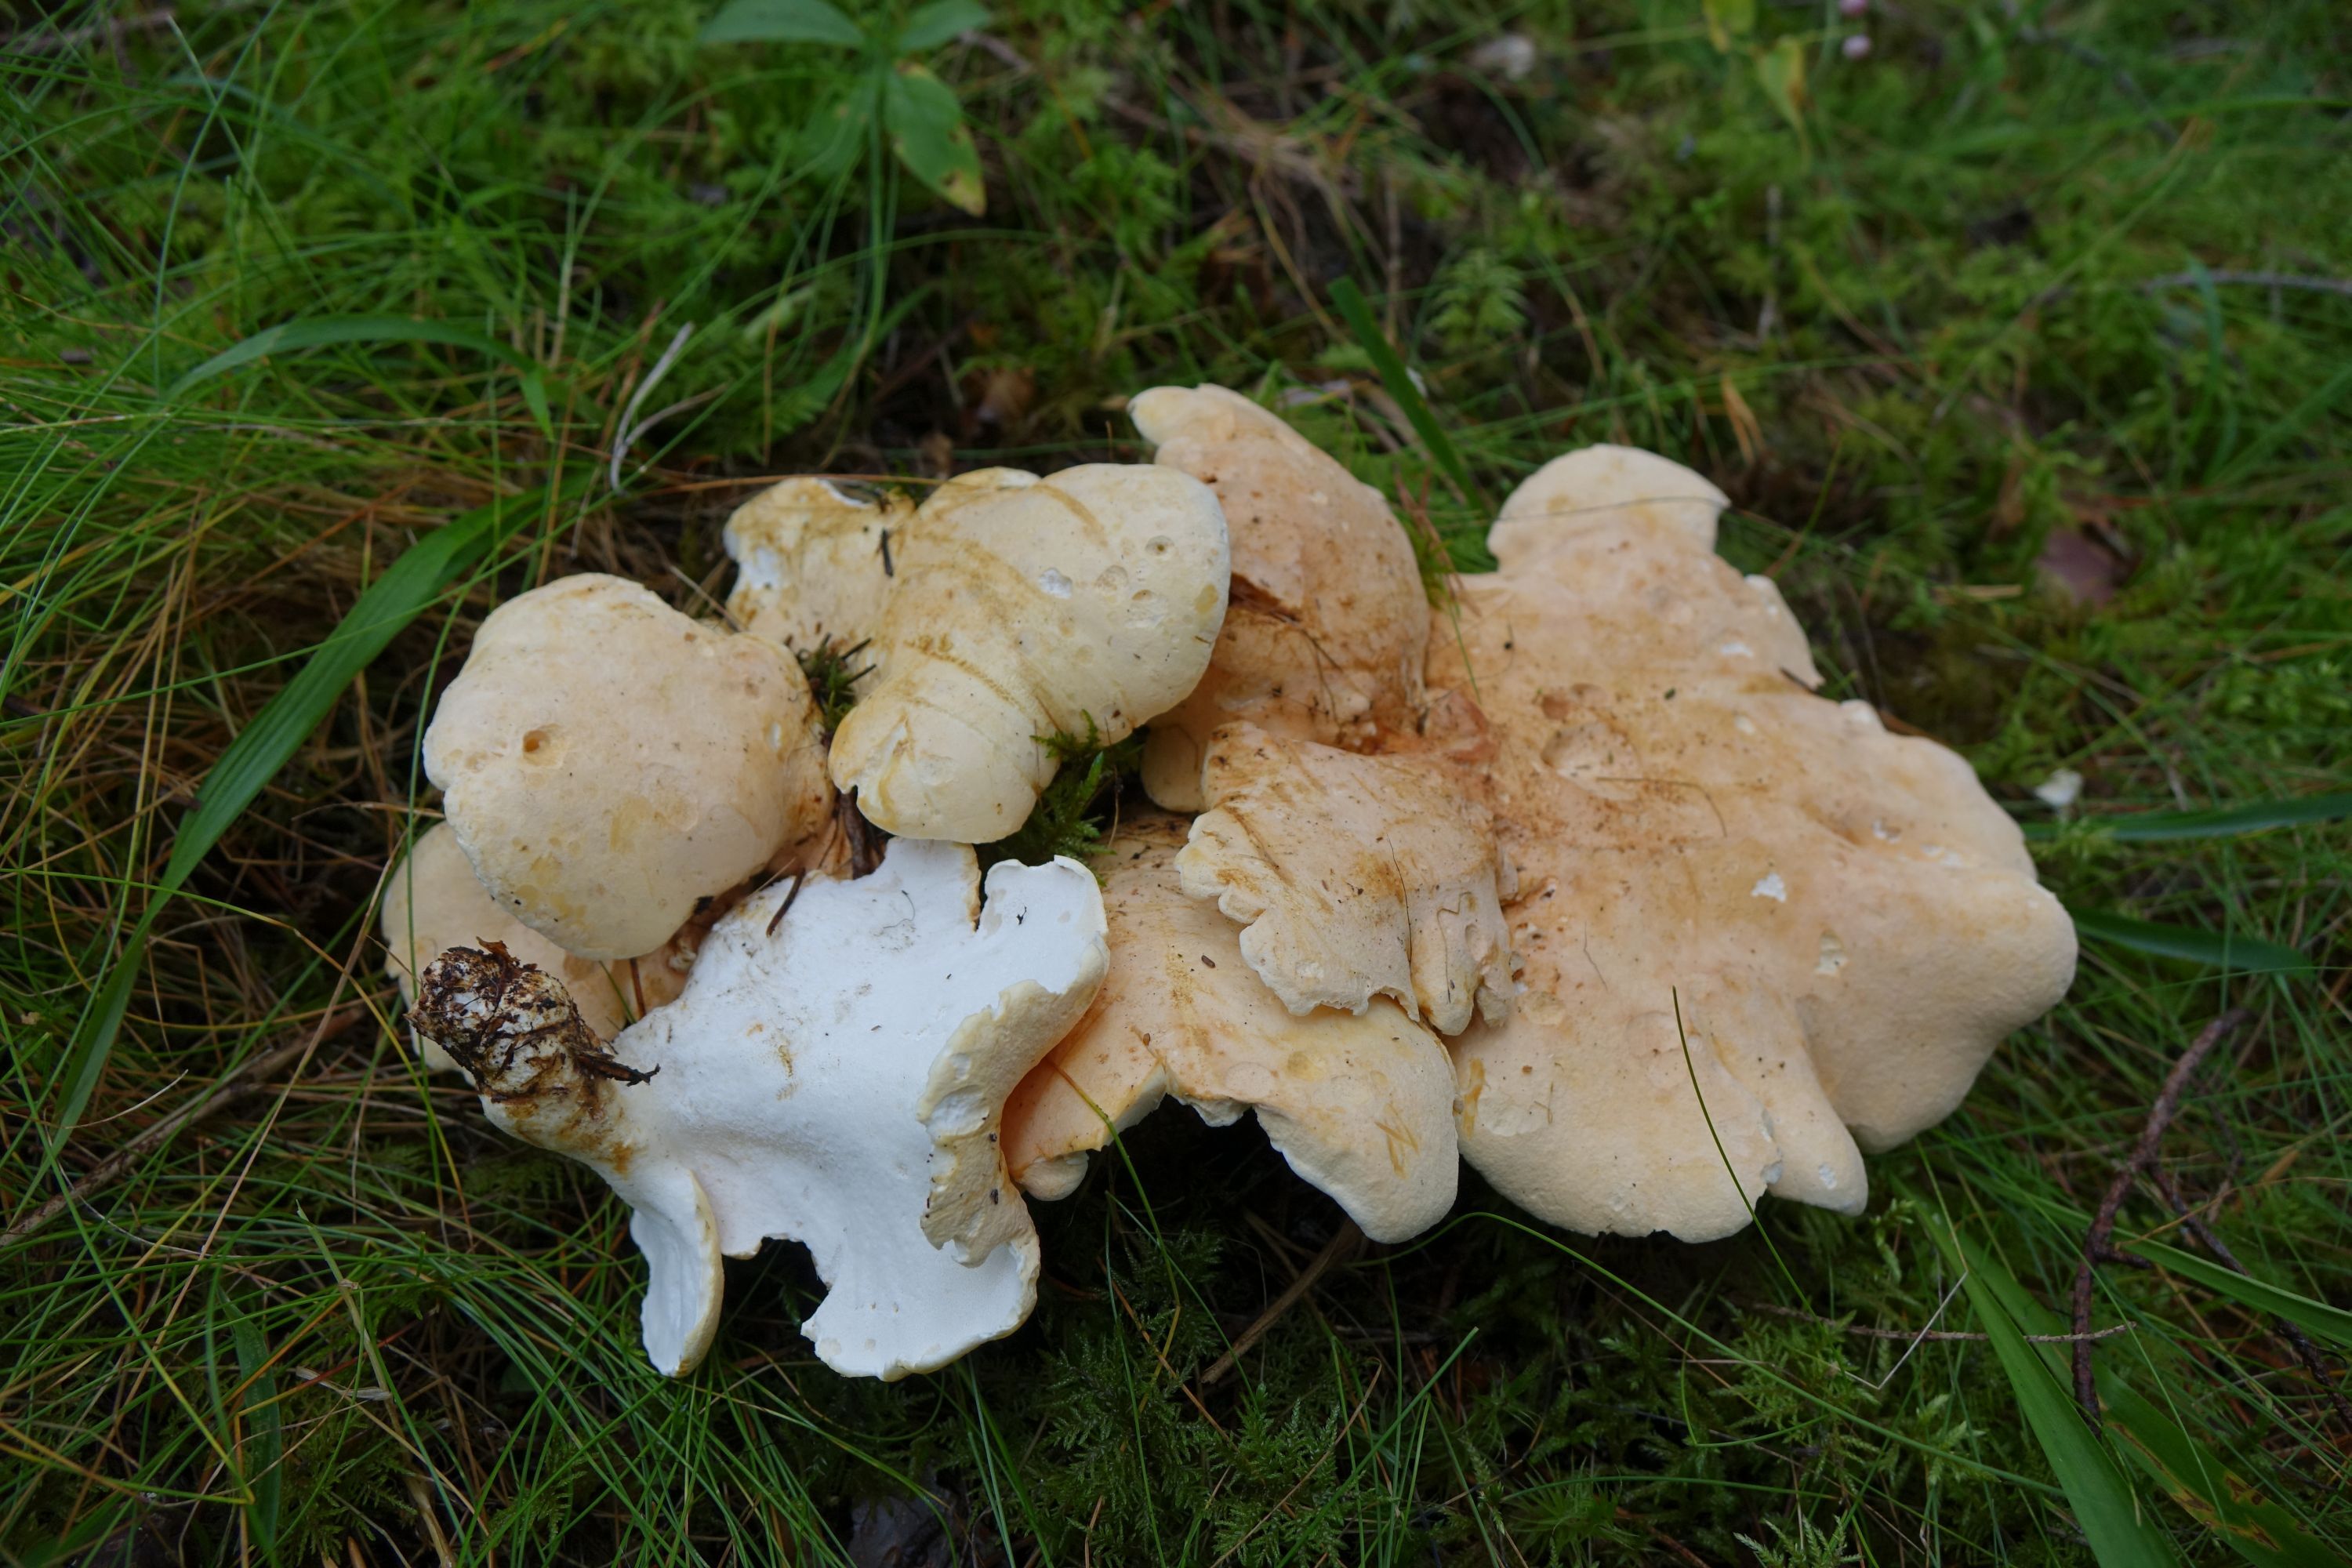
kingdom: Fungi
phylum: Basidiomycota
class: Agaricomycetes
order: Russulales
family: Albatrellaceae
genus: Albatrellopsis
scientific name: Albatrellopsis confluens
